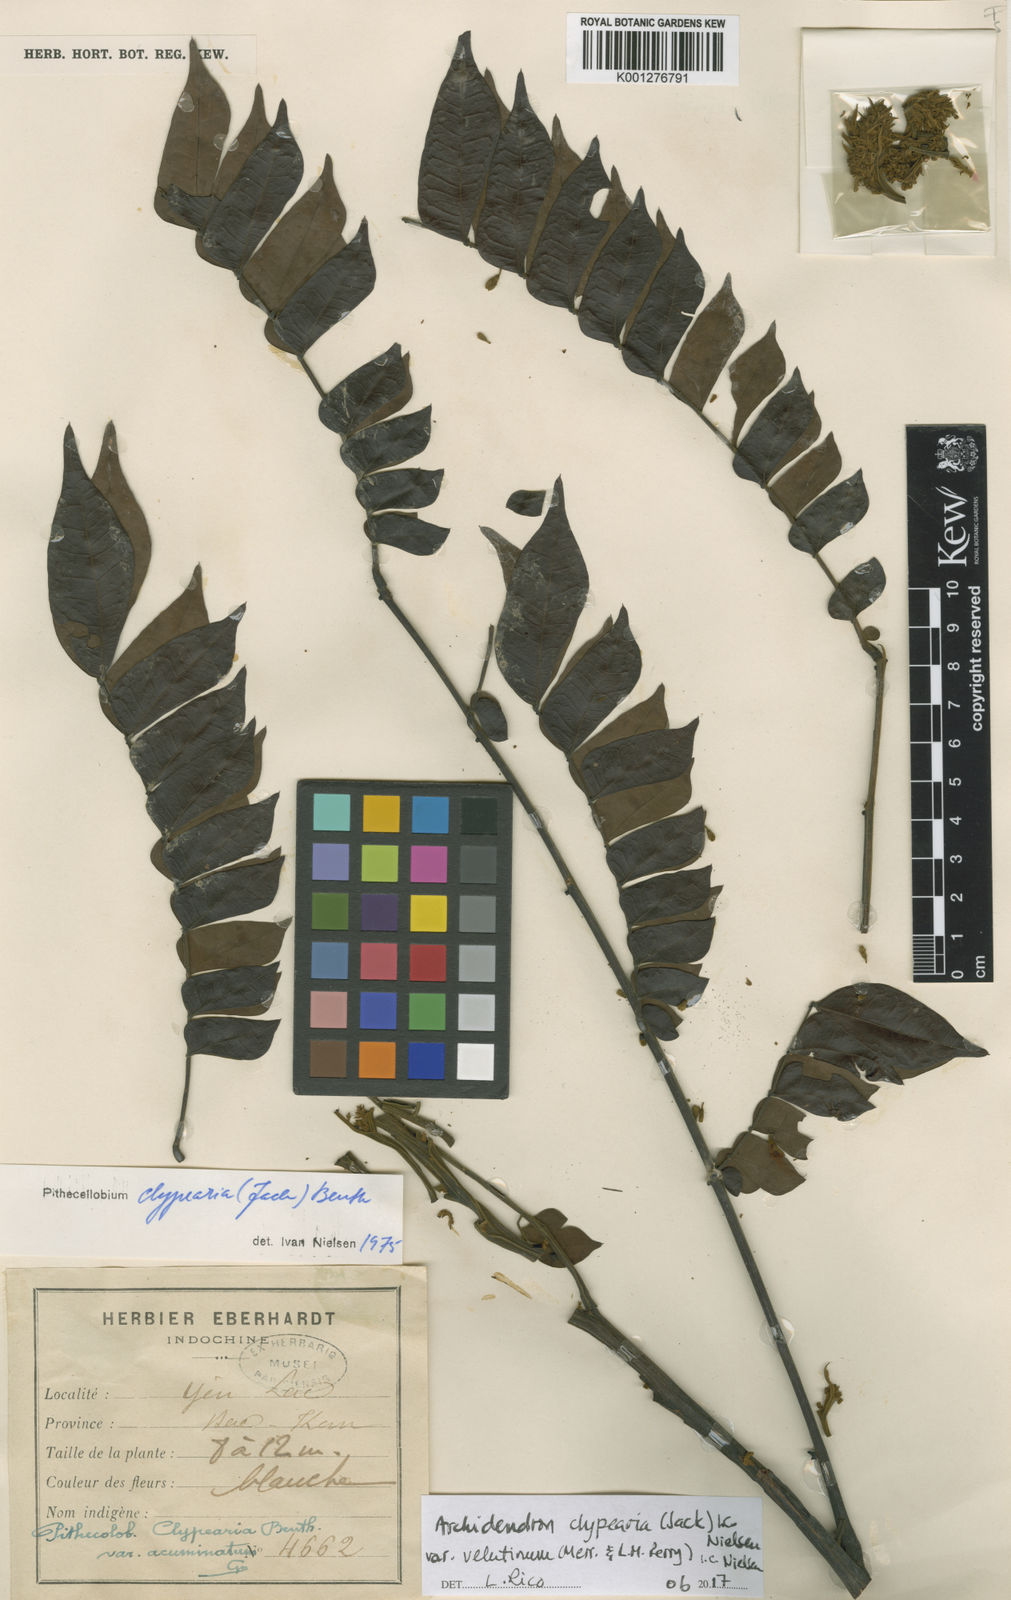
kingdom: Plantae
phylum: Tracheophyta
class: Magnoliopsida
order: Fabales
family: Fabaceae
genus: Archidendron
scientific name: Archidendron clypearia
